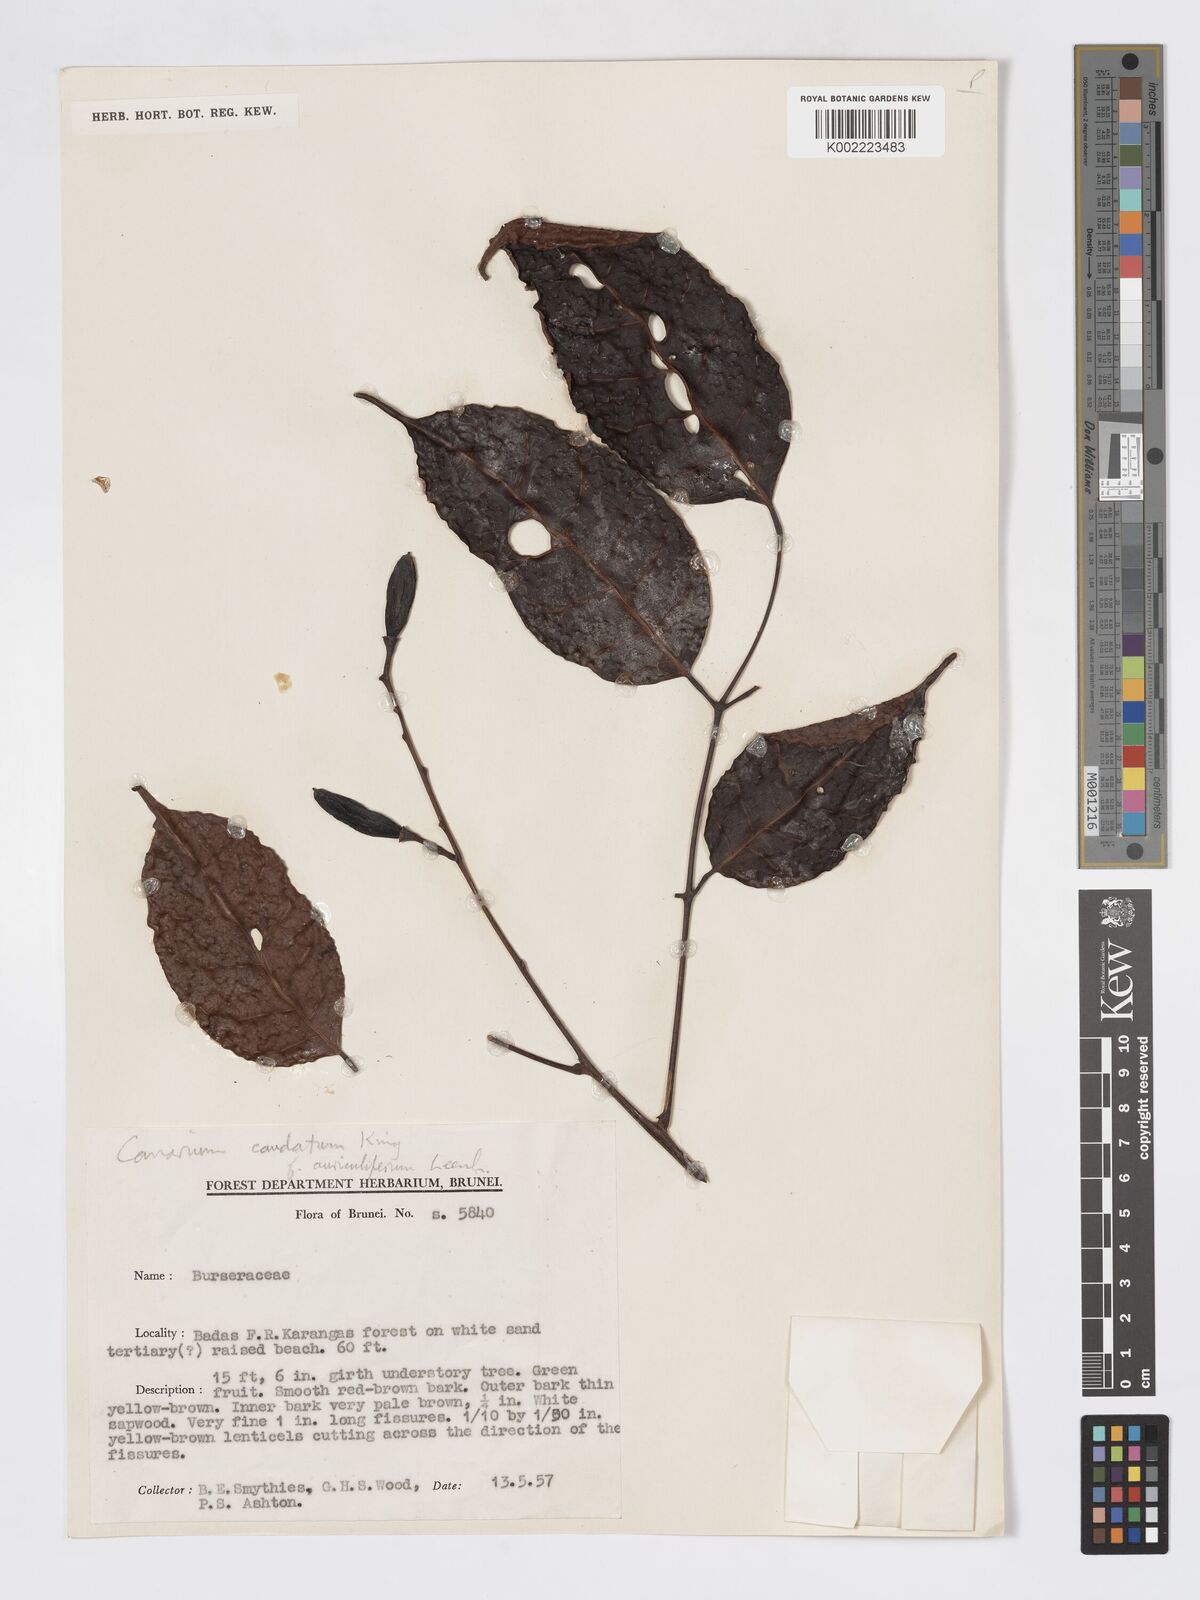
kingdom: Plantae
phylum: Tracheophyta
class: Magnoliopsida
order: Sapindales
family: Burseraceae
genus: Canarium
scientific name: Canarium caudatum
